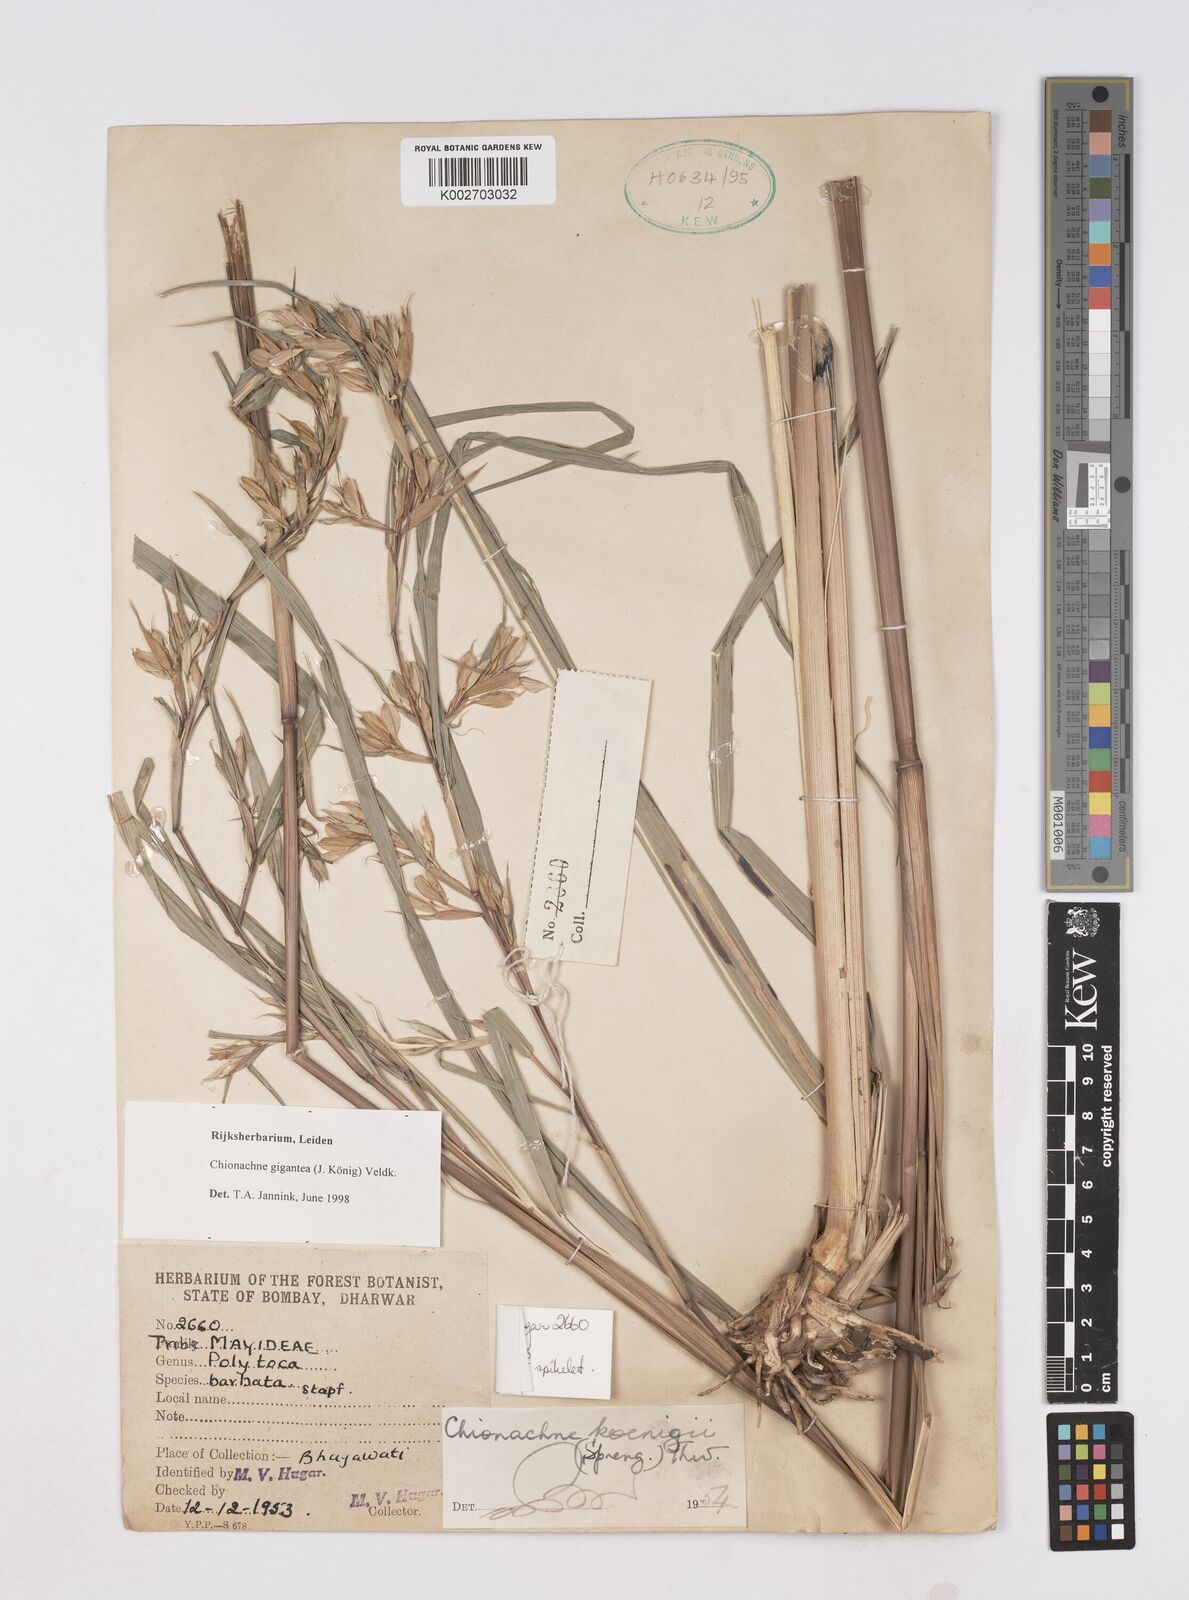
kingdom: Plantae
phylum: Tracheophyta
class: Liliopsida
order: Poales
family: Poaceae
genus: Polytoca
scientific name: Polytoca gigantea
